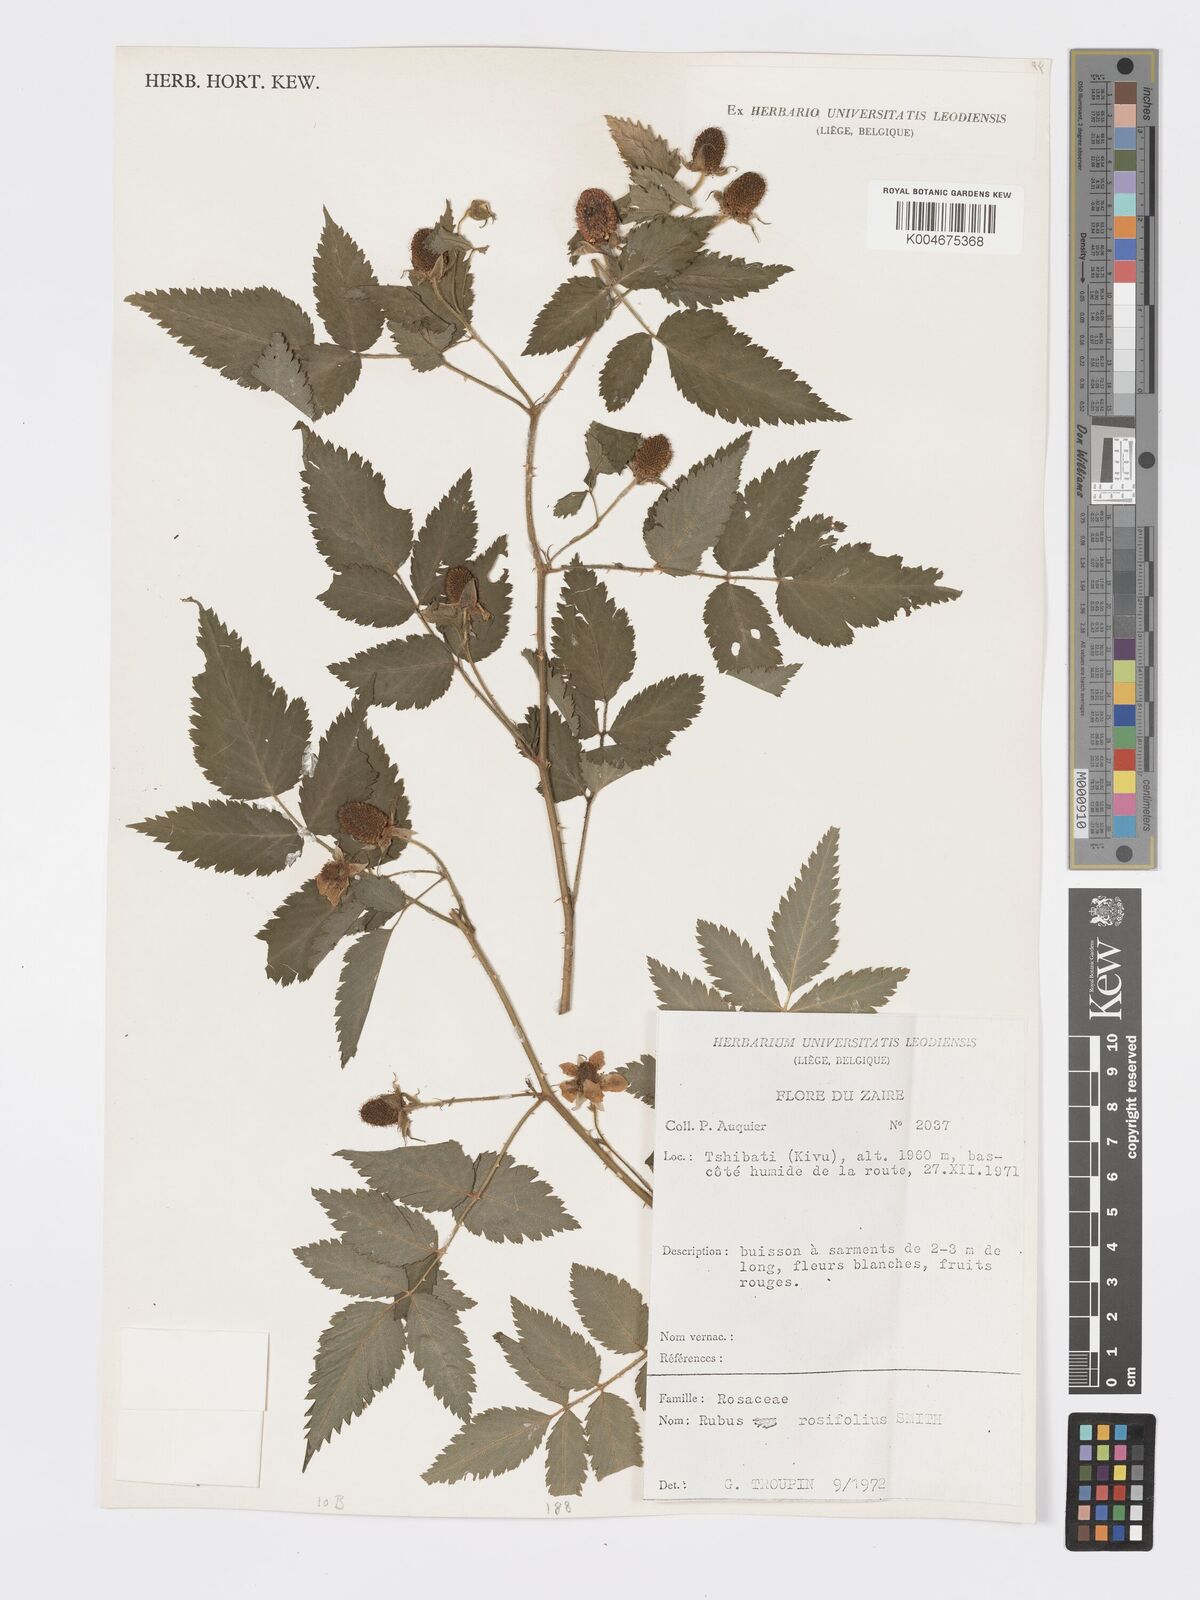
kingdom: Plantae
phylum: Tracheophyta
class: Magnoliopsida
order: Rosales
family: Rosaceae
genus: Rubus
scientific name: Rubus
